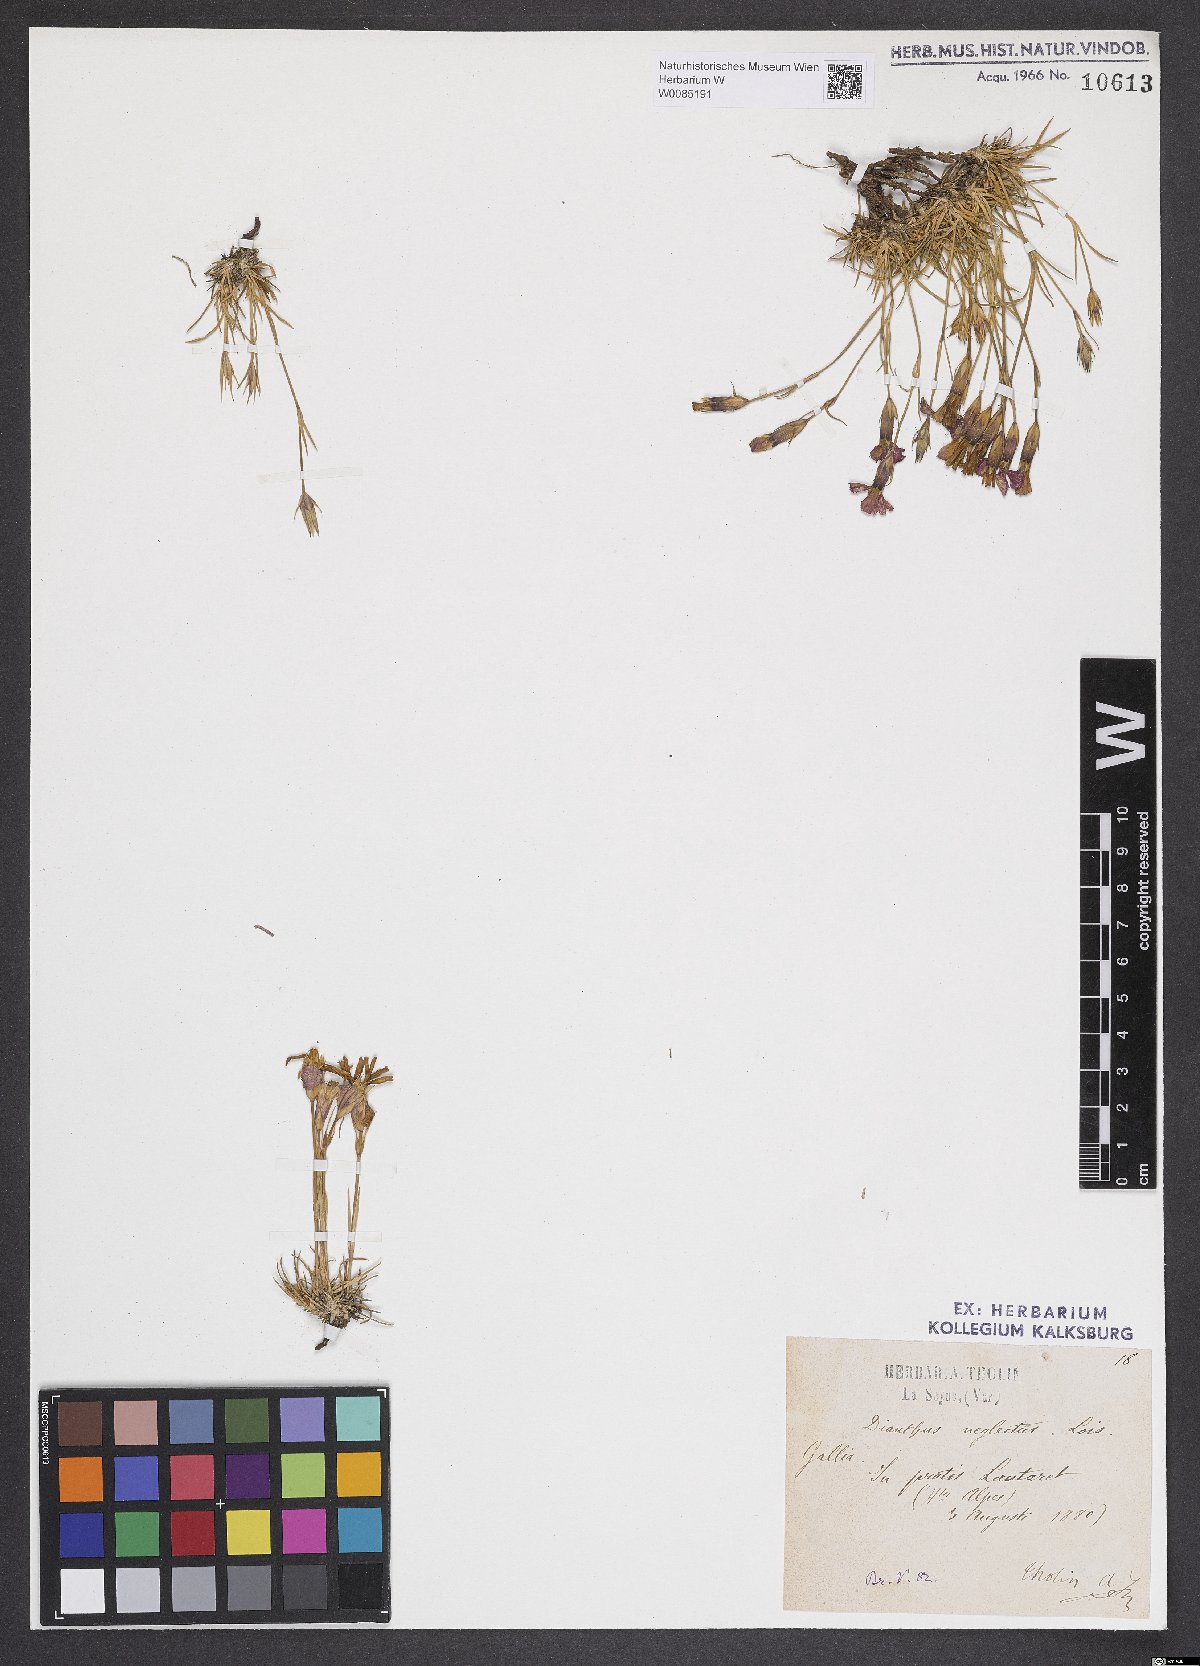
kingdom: Plantae
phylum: Tracheophyta
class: Magnoliopsida
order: Caryophyllales
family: Caryophyllaceae
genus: Dianthus
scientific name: Dianthus pavonius
